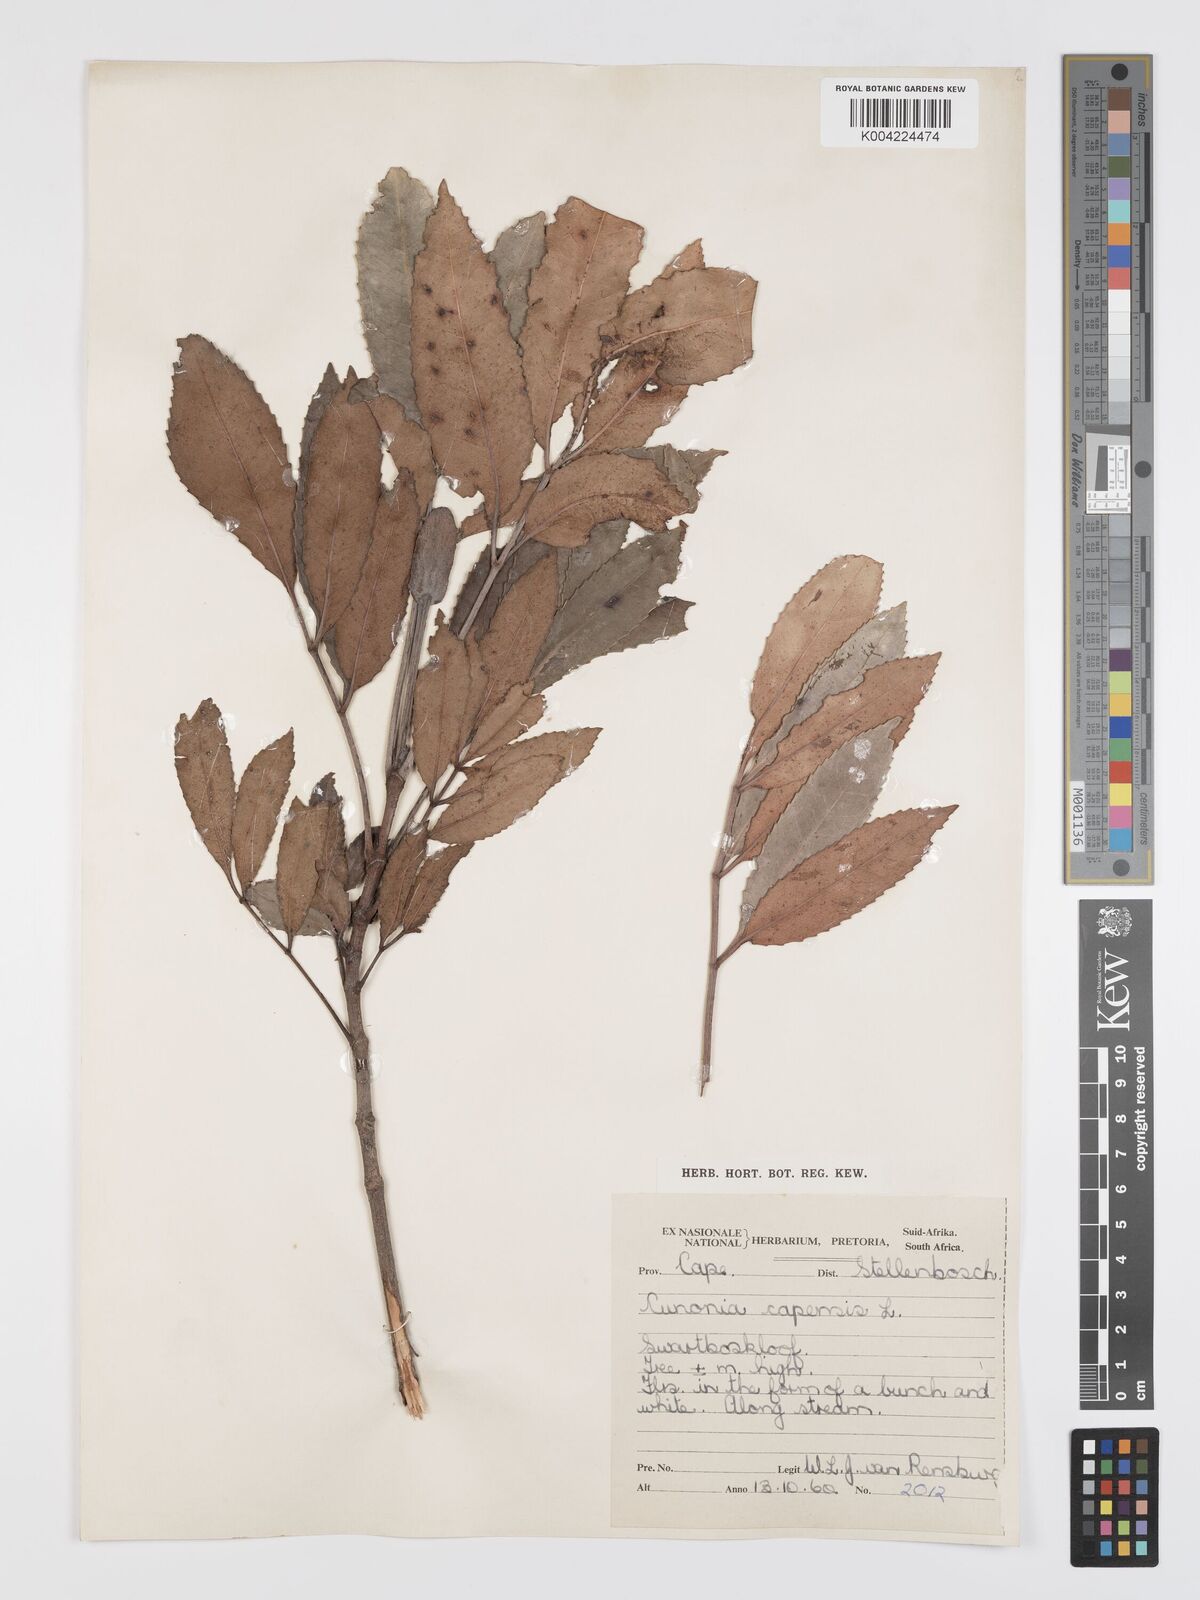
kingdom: Plantae
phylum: Tracheophyta
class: Magnoliopsida
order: Oxalidales
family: Cunoniaceae
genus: Cunonia
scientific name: Cunonia capensis
